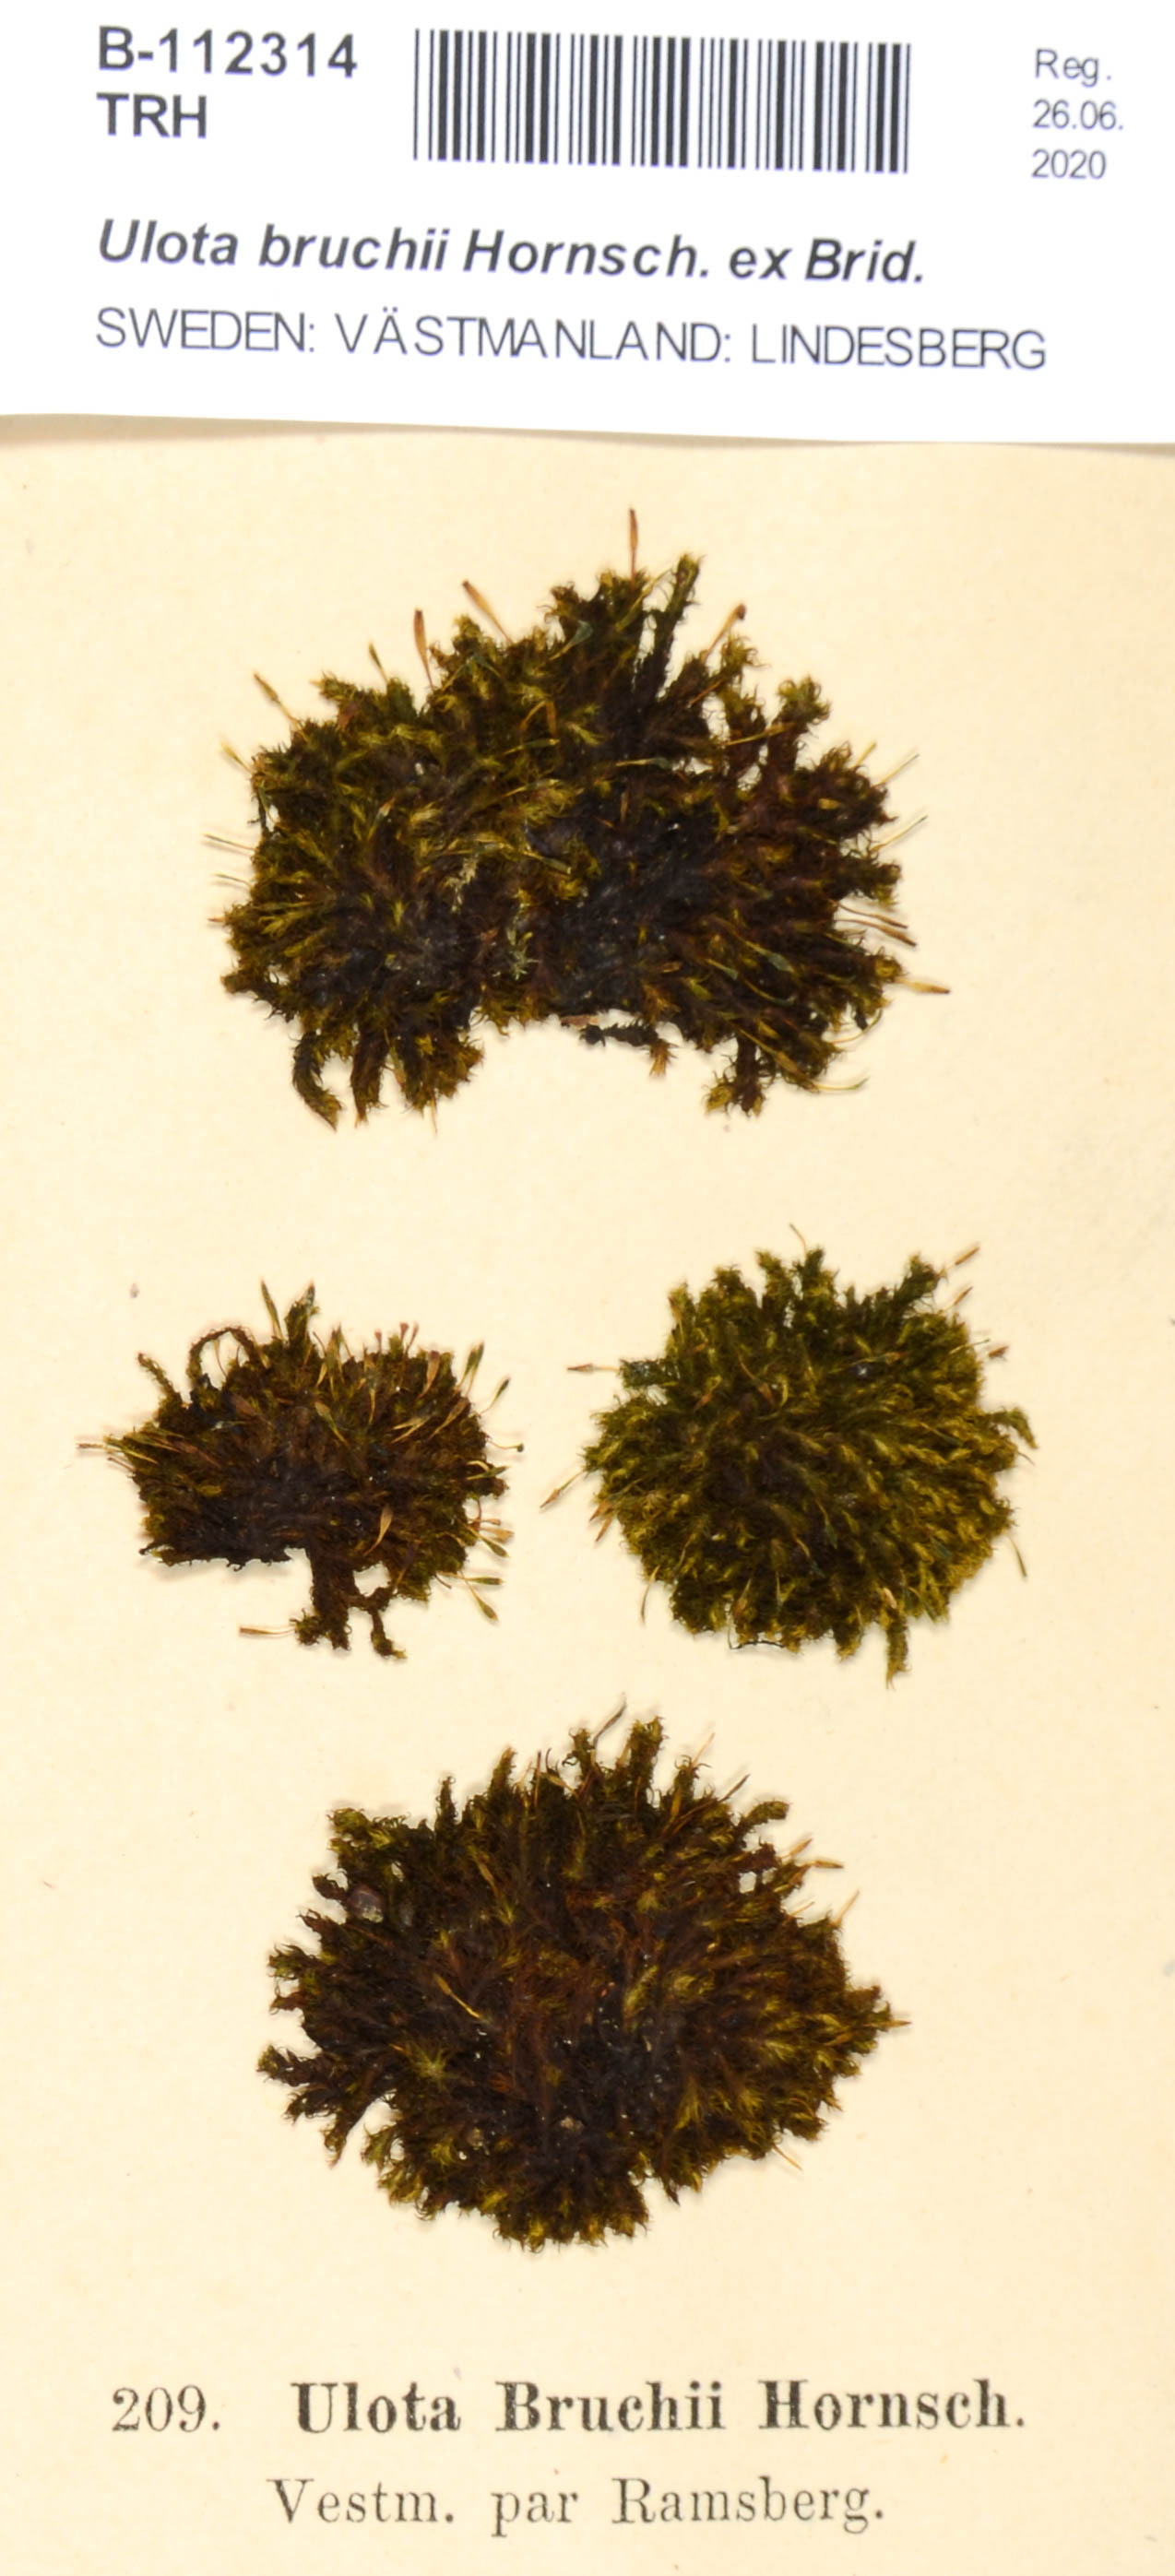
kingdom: Plantae
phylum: Bryophyta
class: Bryopsida
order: Orthotrichales
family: Orthotrichaceae
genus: Ulota
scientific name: Ulota bruchii
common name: Bruch's pincushion
